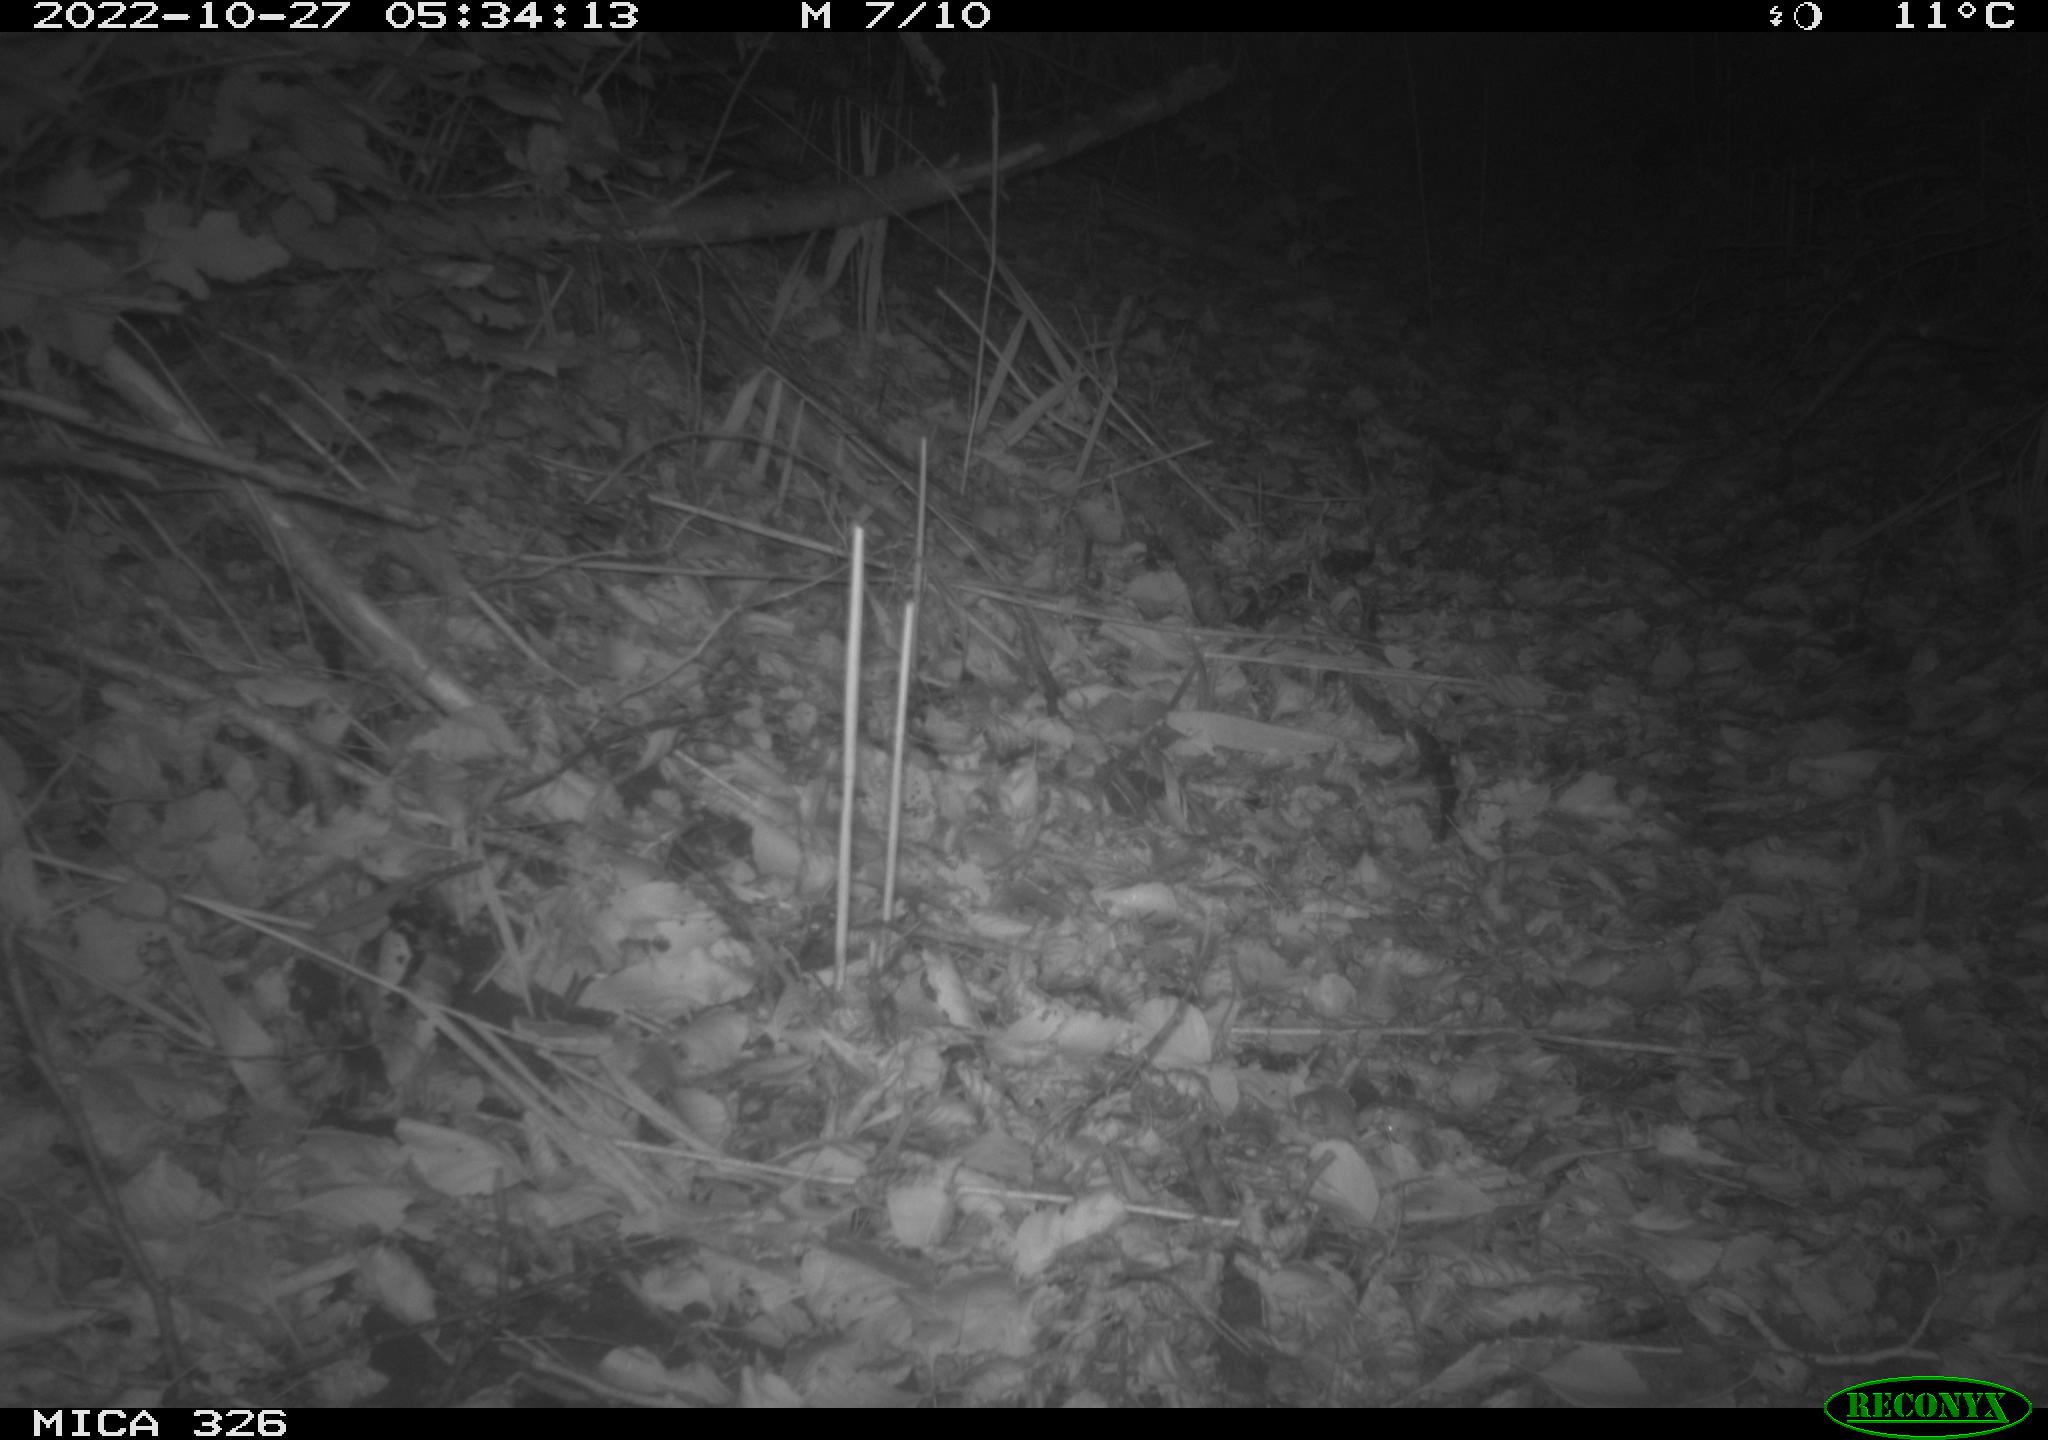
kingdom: Animalia
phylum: Chordata
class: Mammalia
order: Carnivora
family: Mustelidae
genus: Lutra
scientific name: Lutra lutra
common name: European otter
